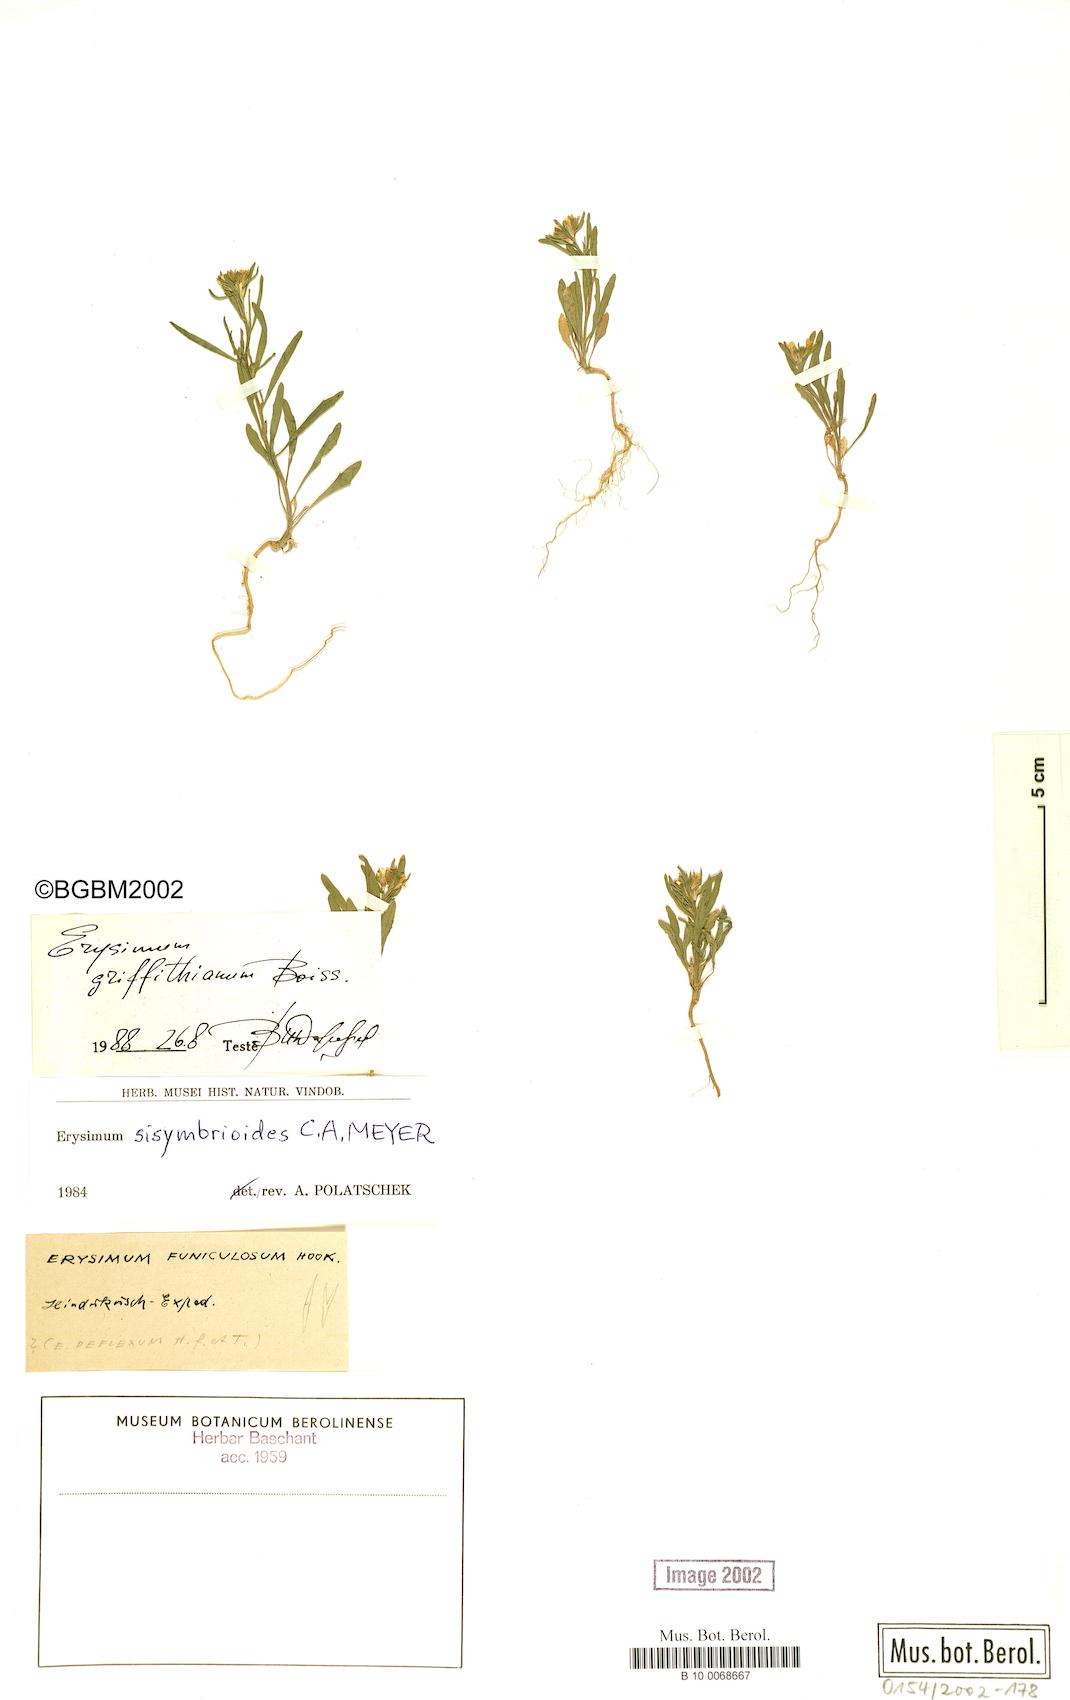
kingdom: Plantae
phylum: Tracheophyta
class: Magnoliopsida
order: Brassicales
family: Brassicaceae
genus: Erysimum
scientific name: Erysimum sisymbrioides
